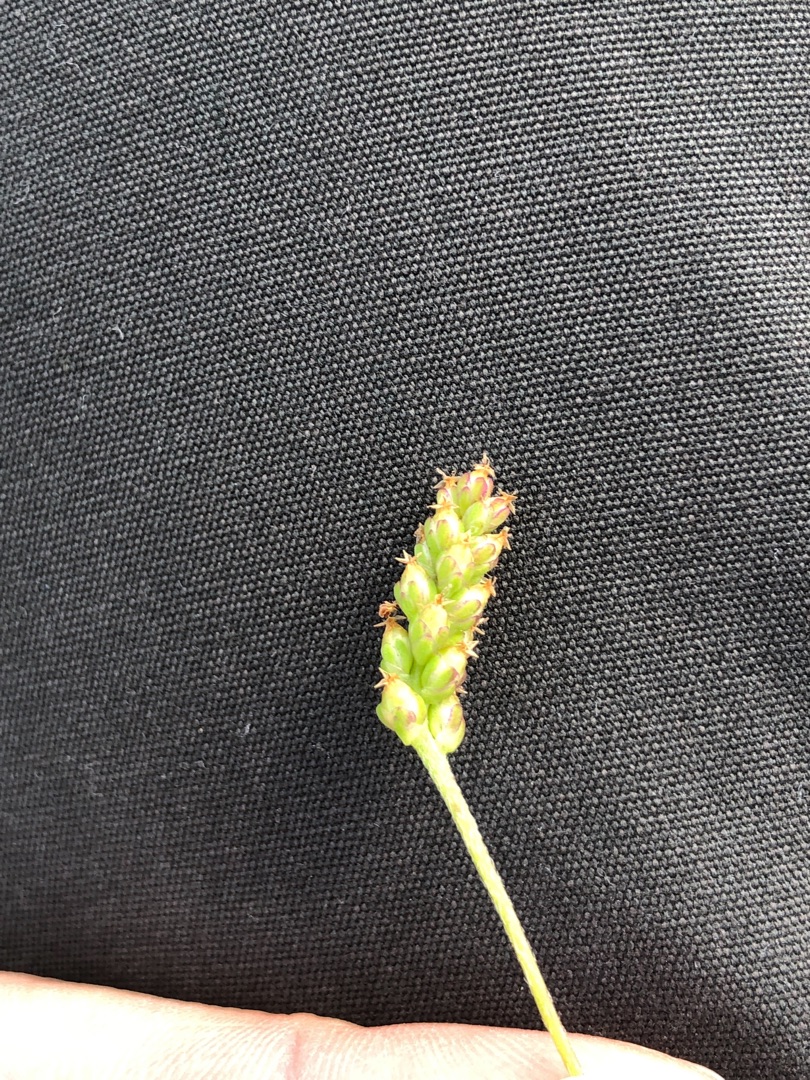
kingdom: Plantae
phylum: Tracheophyta
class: Magnoliopsida
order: Lamiales
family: Plantaginaceae
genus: Plantago
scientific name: Plantago major
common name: Glat vejbred
